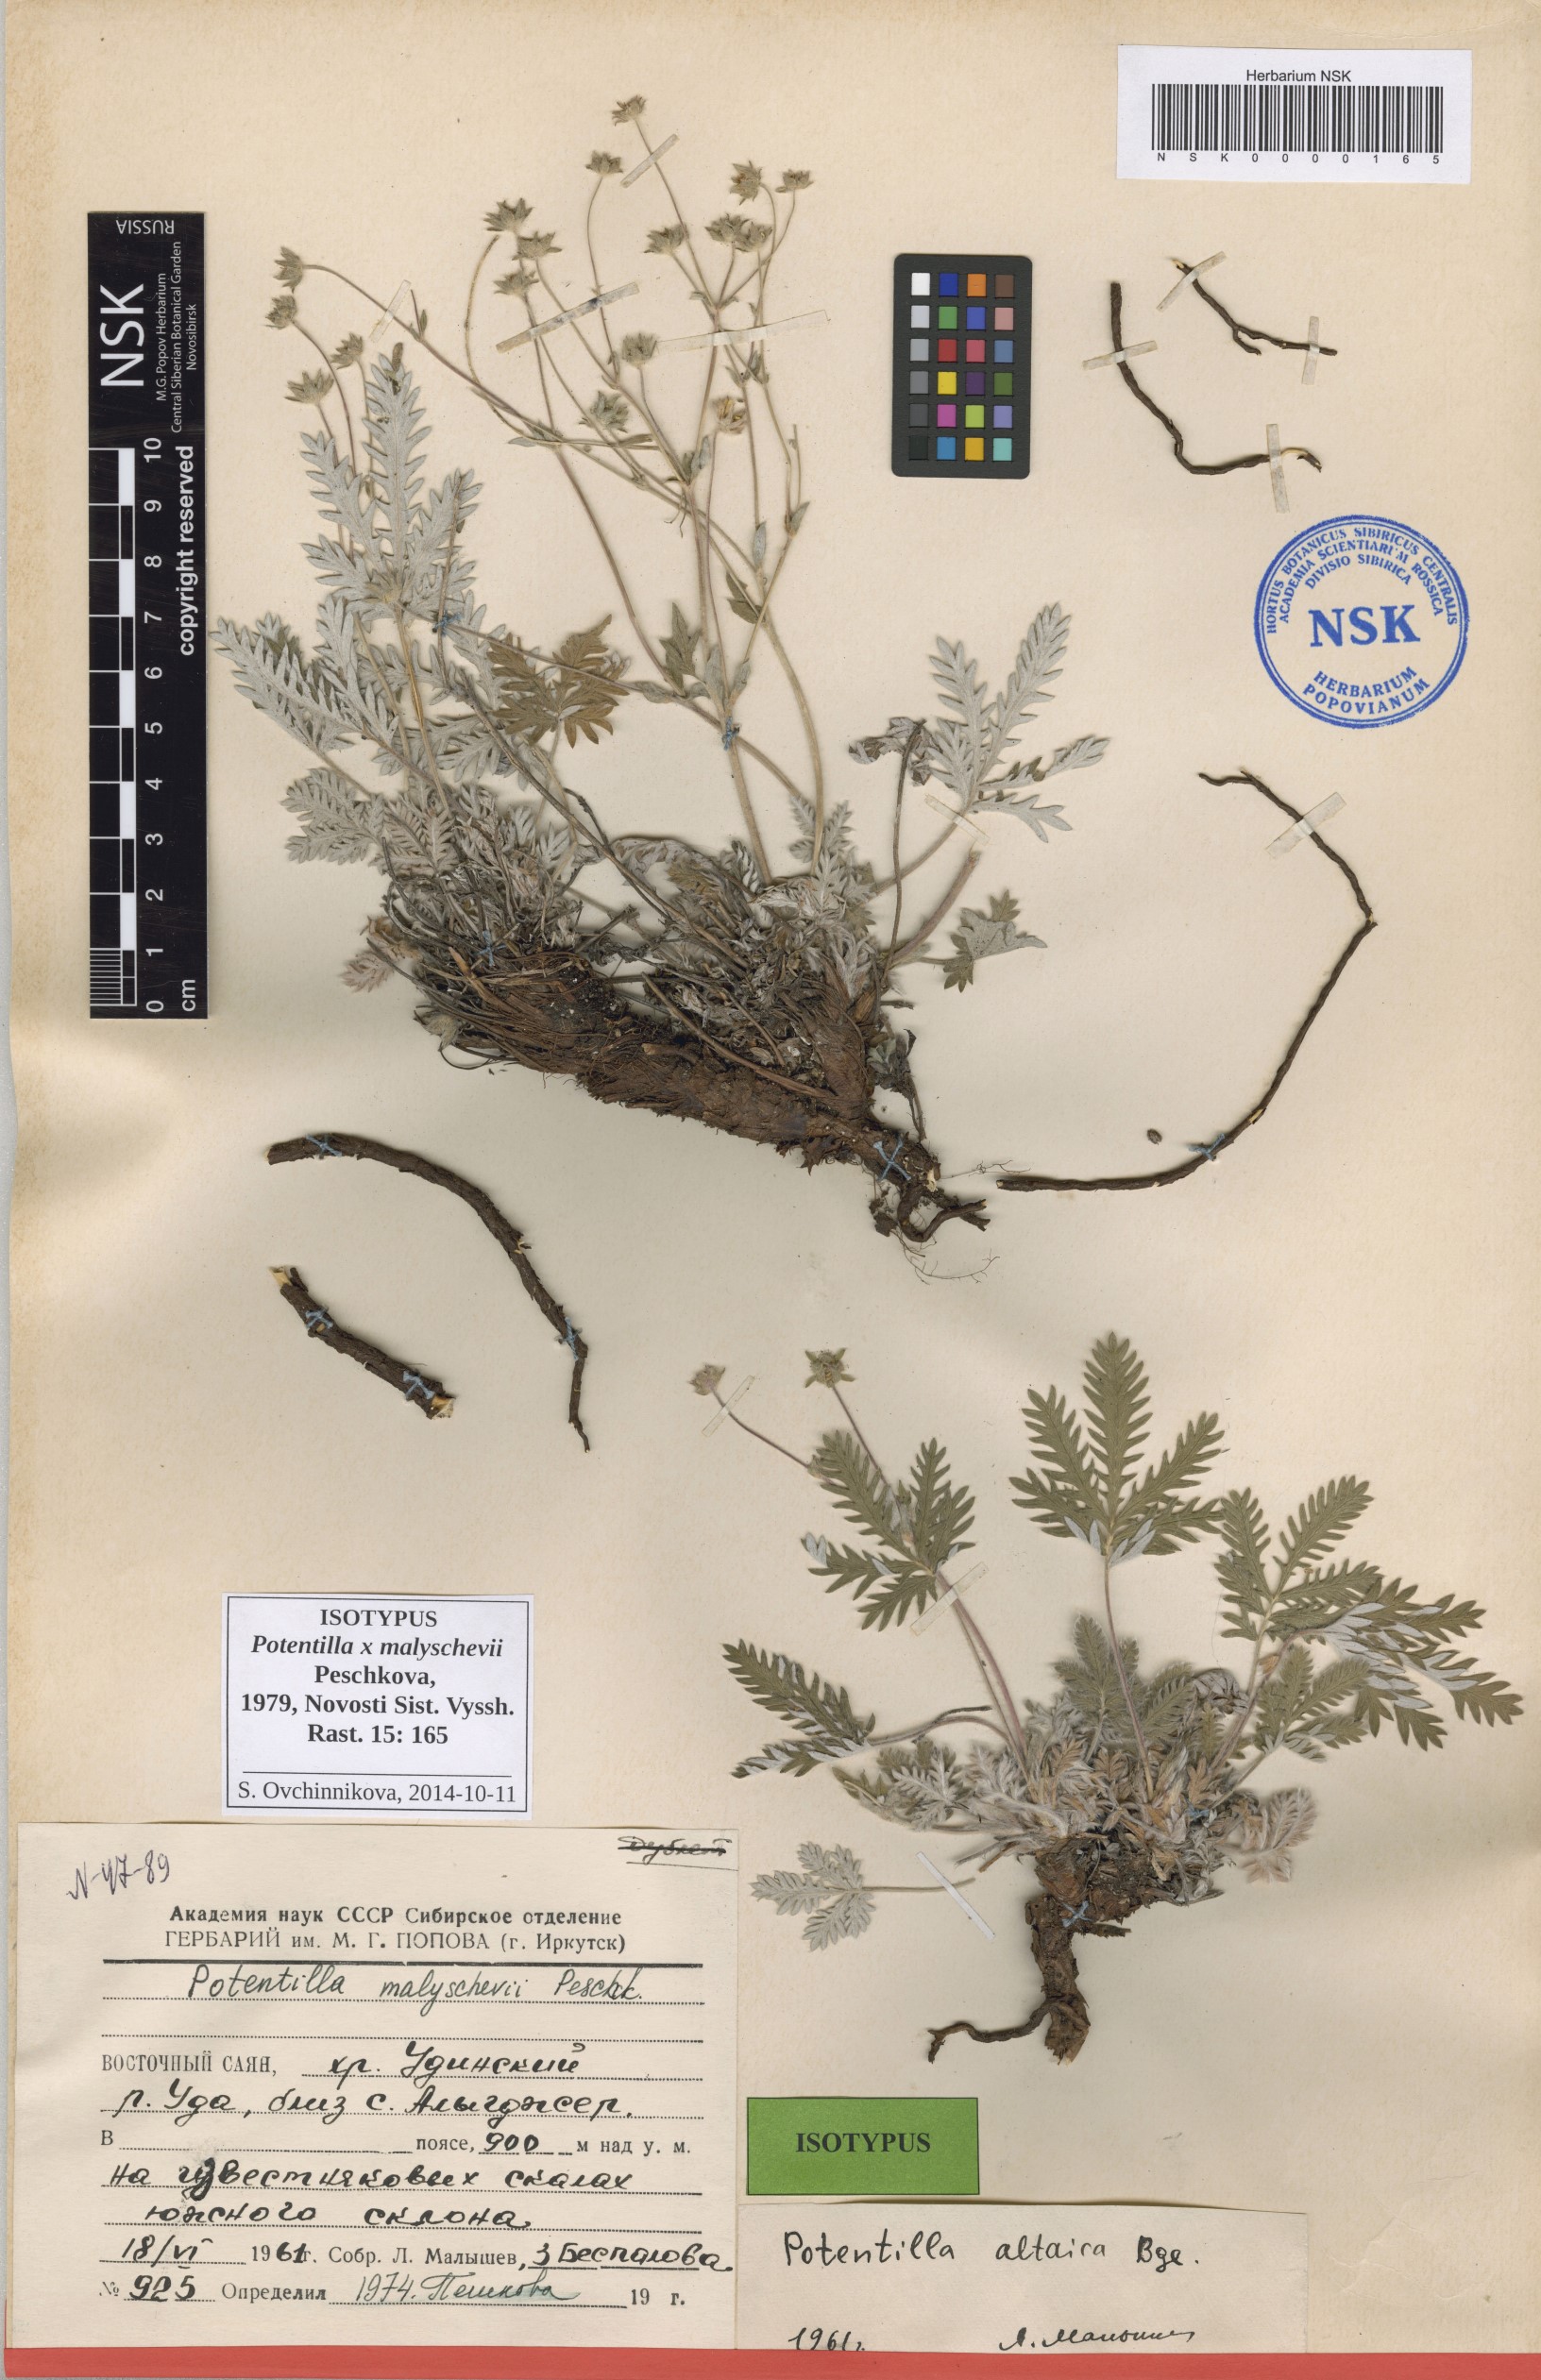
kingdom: Plantae
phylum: Tracheophyta
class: Magnoliopsida
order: Rosales
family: Rosaceae
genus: Potentilla
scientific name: Potentilla chionea
